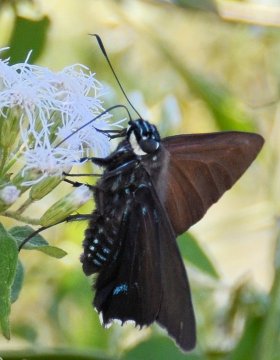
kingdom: Animalia
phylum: Arthropoda
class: Insecta
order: Lepidoptera
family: Hesperiidae
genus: Phocides
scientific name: Phocides pigmalion
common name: Mangrove Skipper
